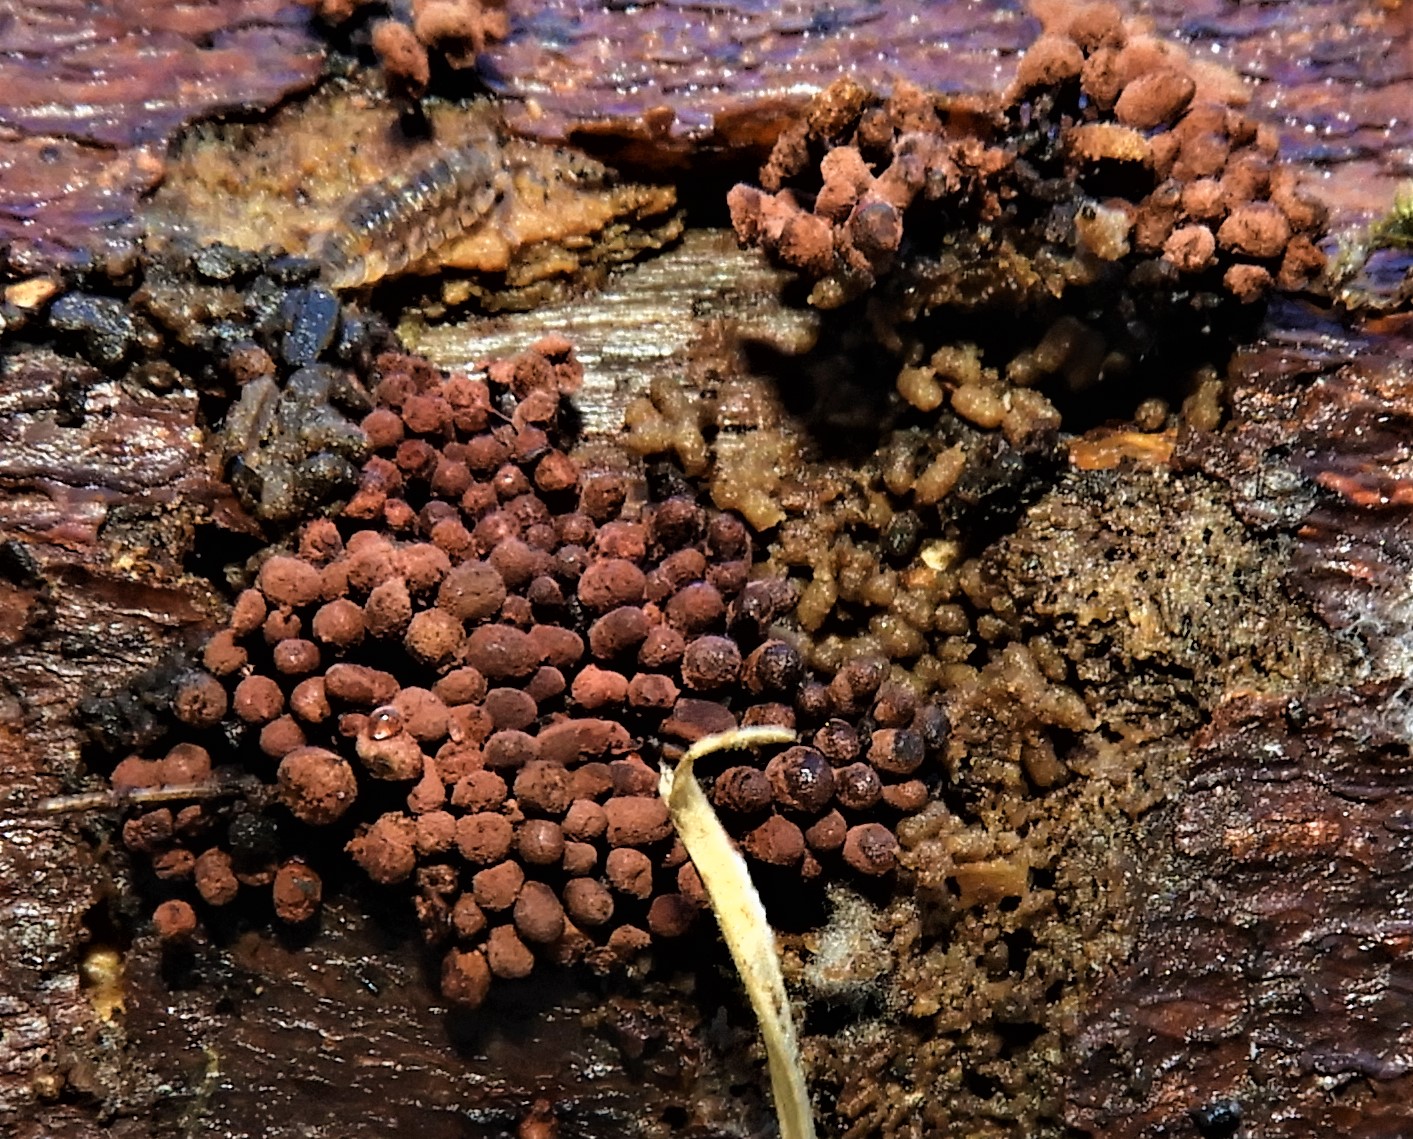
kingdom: Protozoa
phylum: Amoebozoa
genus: Arcyria
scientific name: Arcyria
